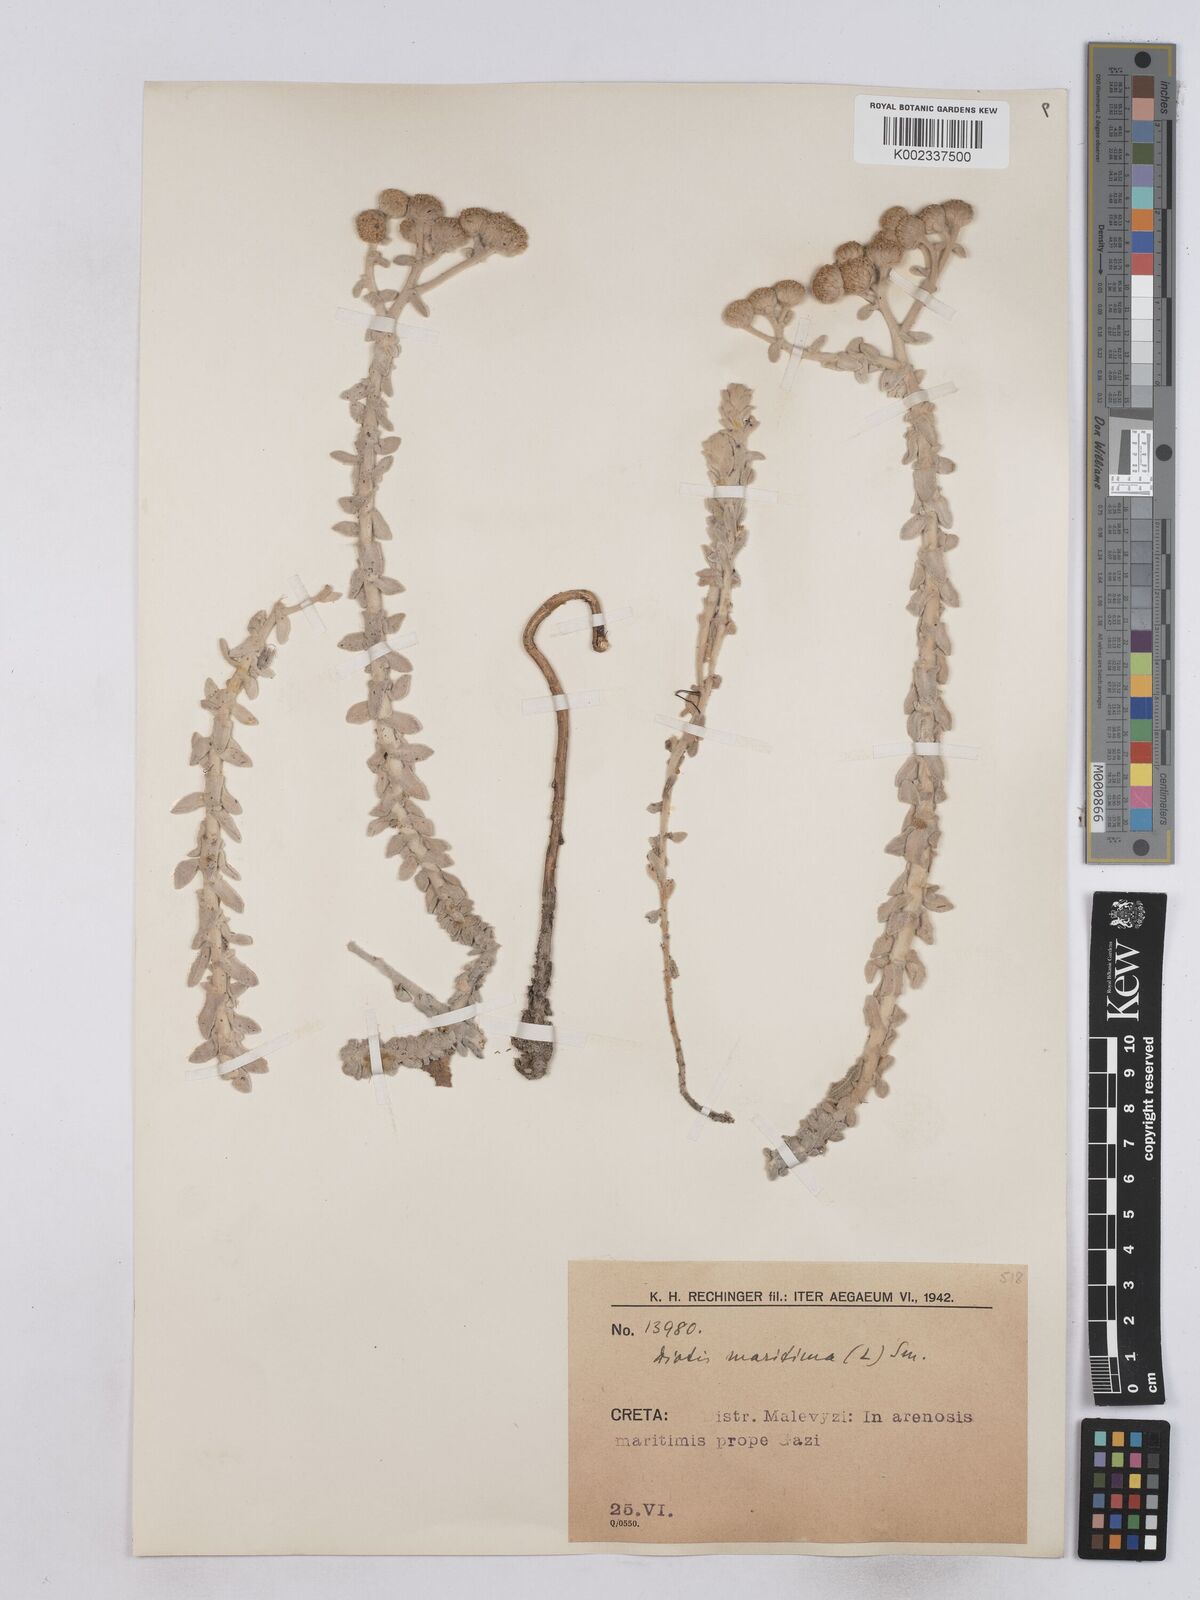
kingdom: Plantae
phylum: Tracheophyta
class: Magnoliopsida
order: Asterales
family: Asteraceae
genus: Achillea
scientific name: Achillea maritima
